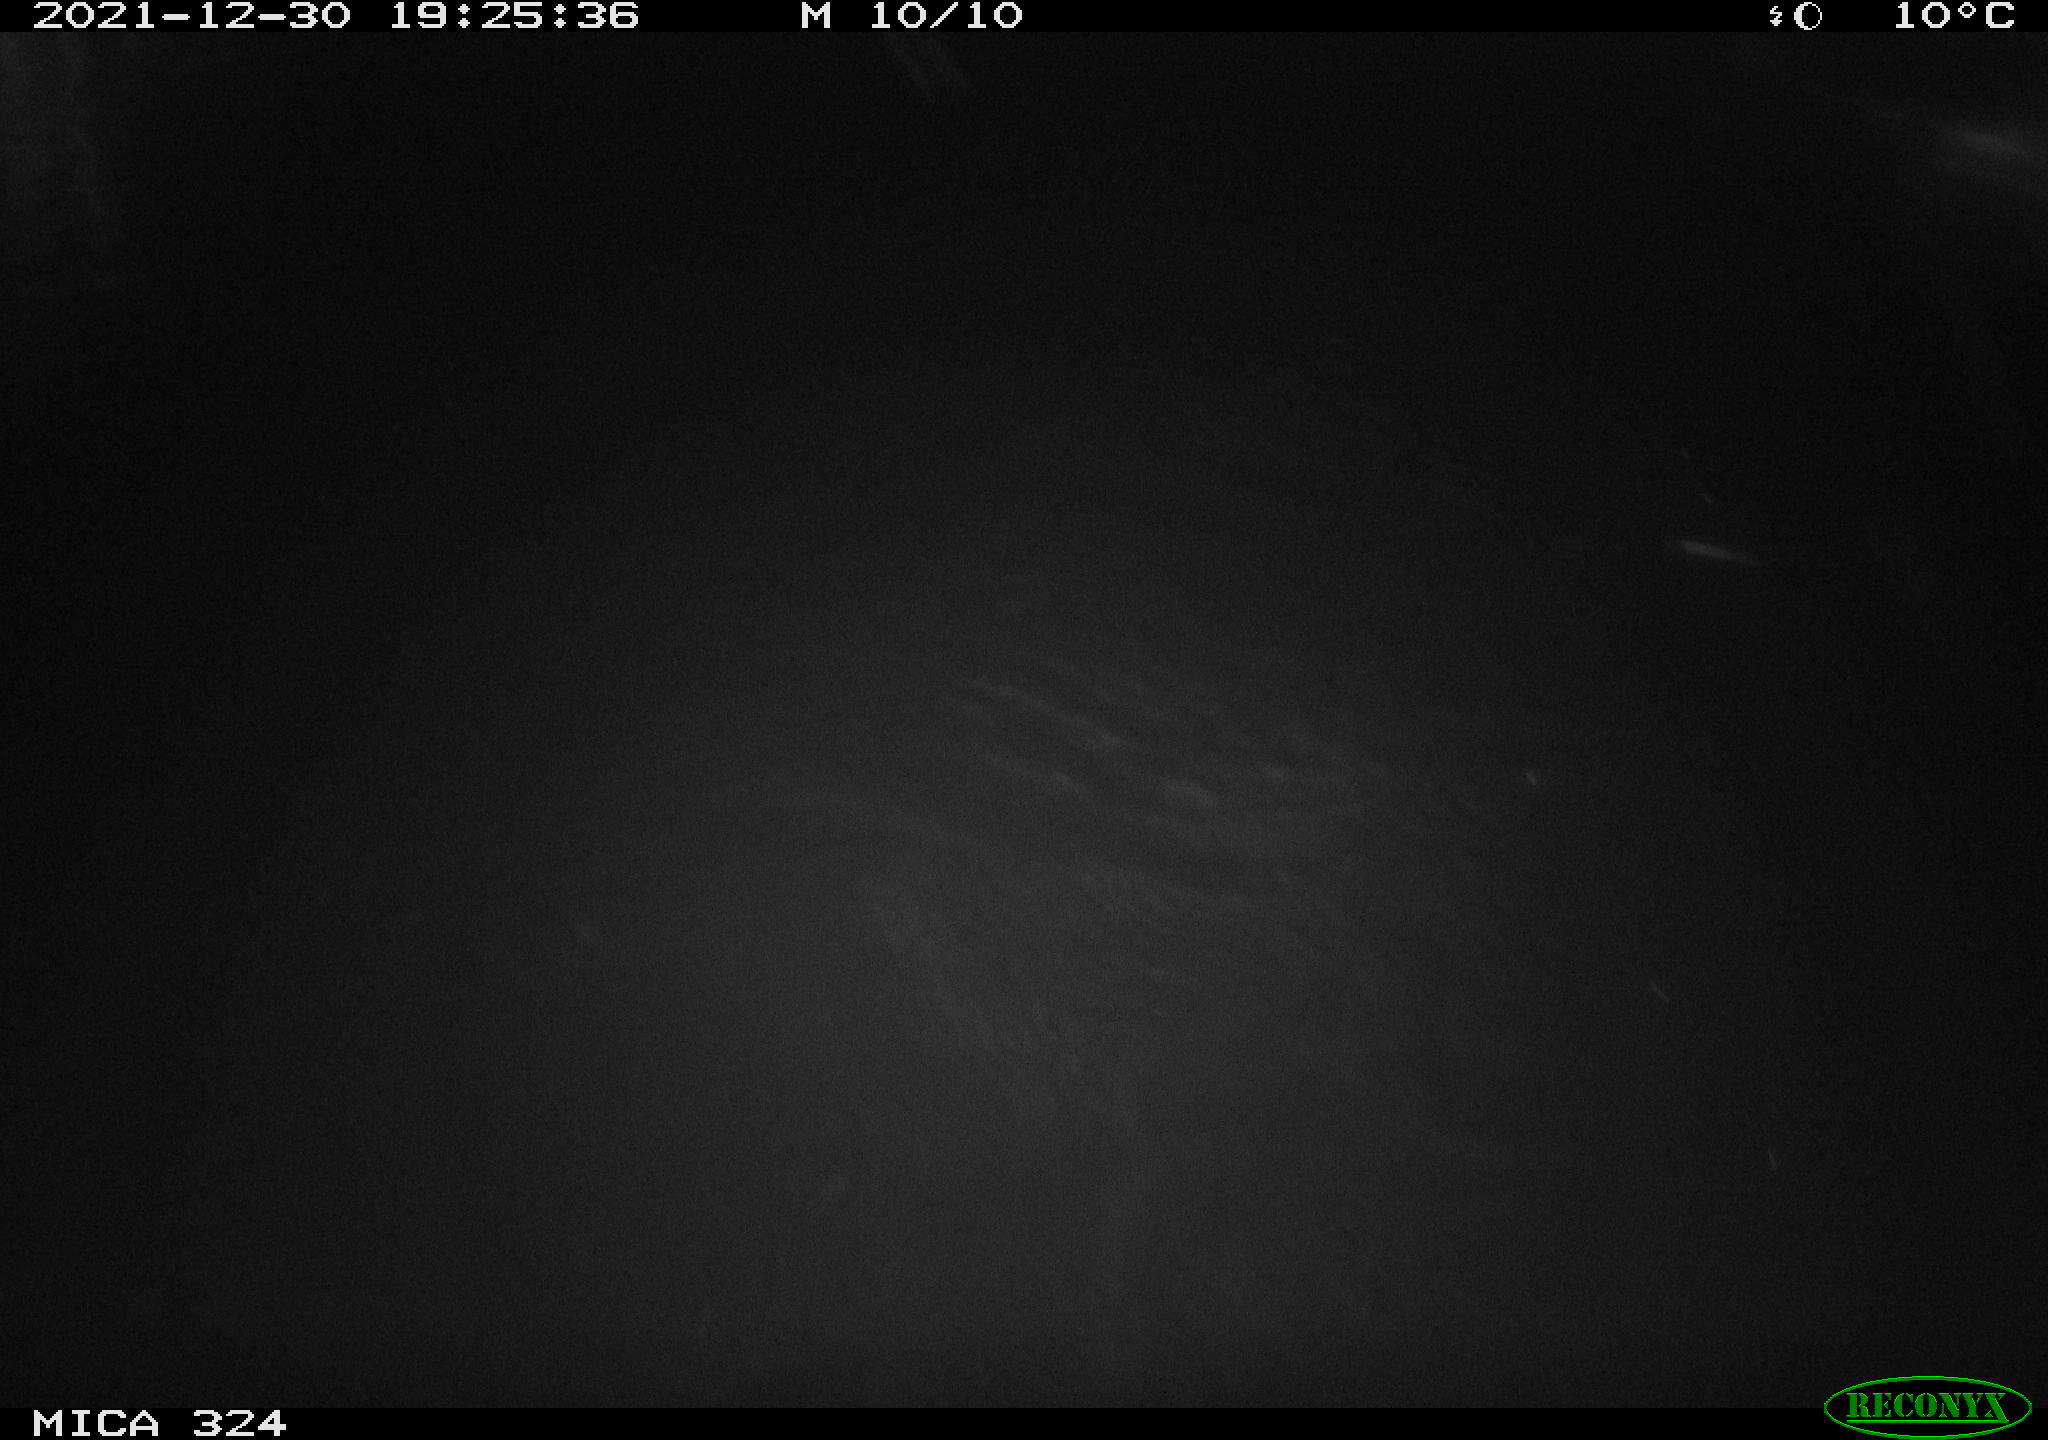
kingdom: Animalia
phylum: Chordata
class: Mammalia
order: Rodentia
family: Cricetidae
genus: Ondatra
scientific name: Ondatra zibethicus
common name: Muskrat
